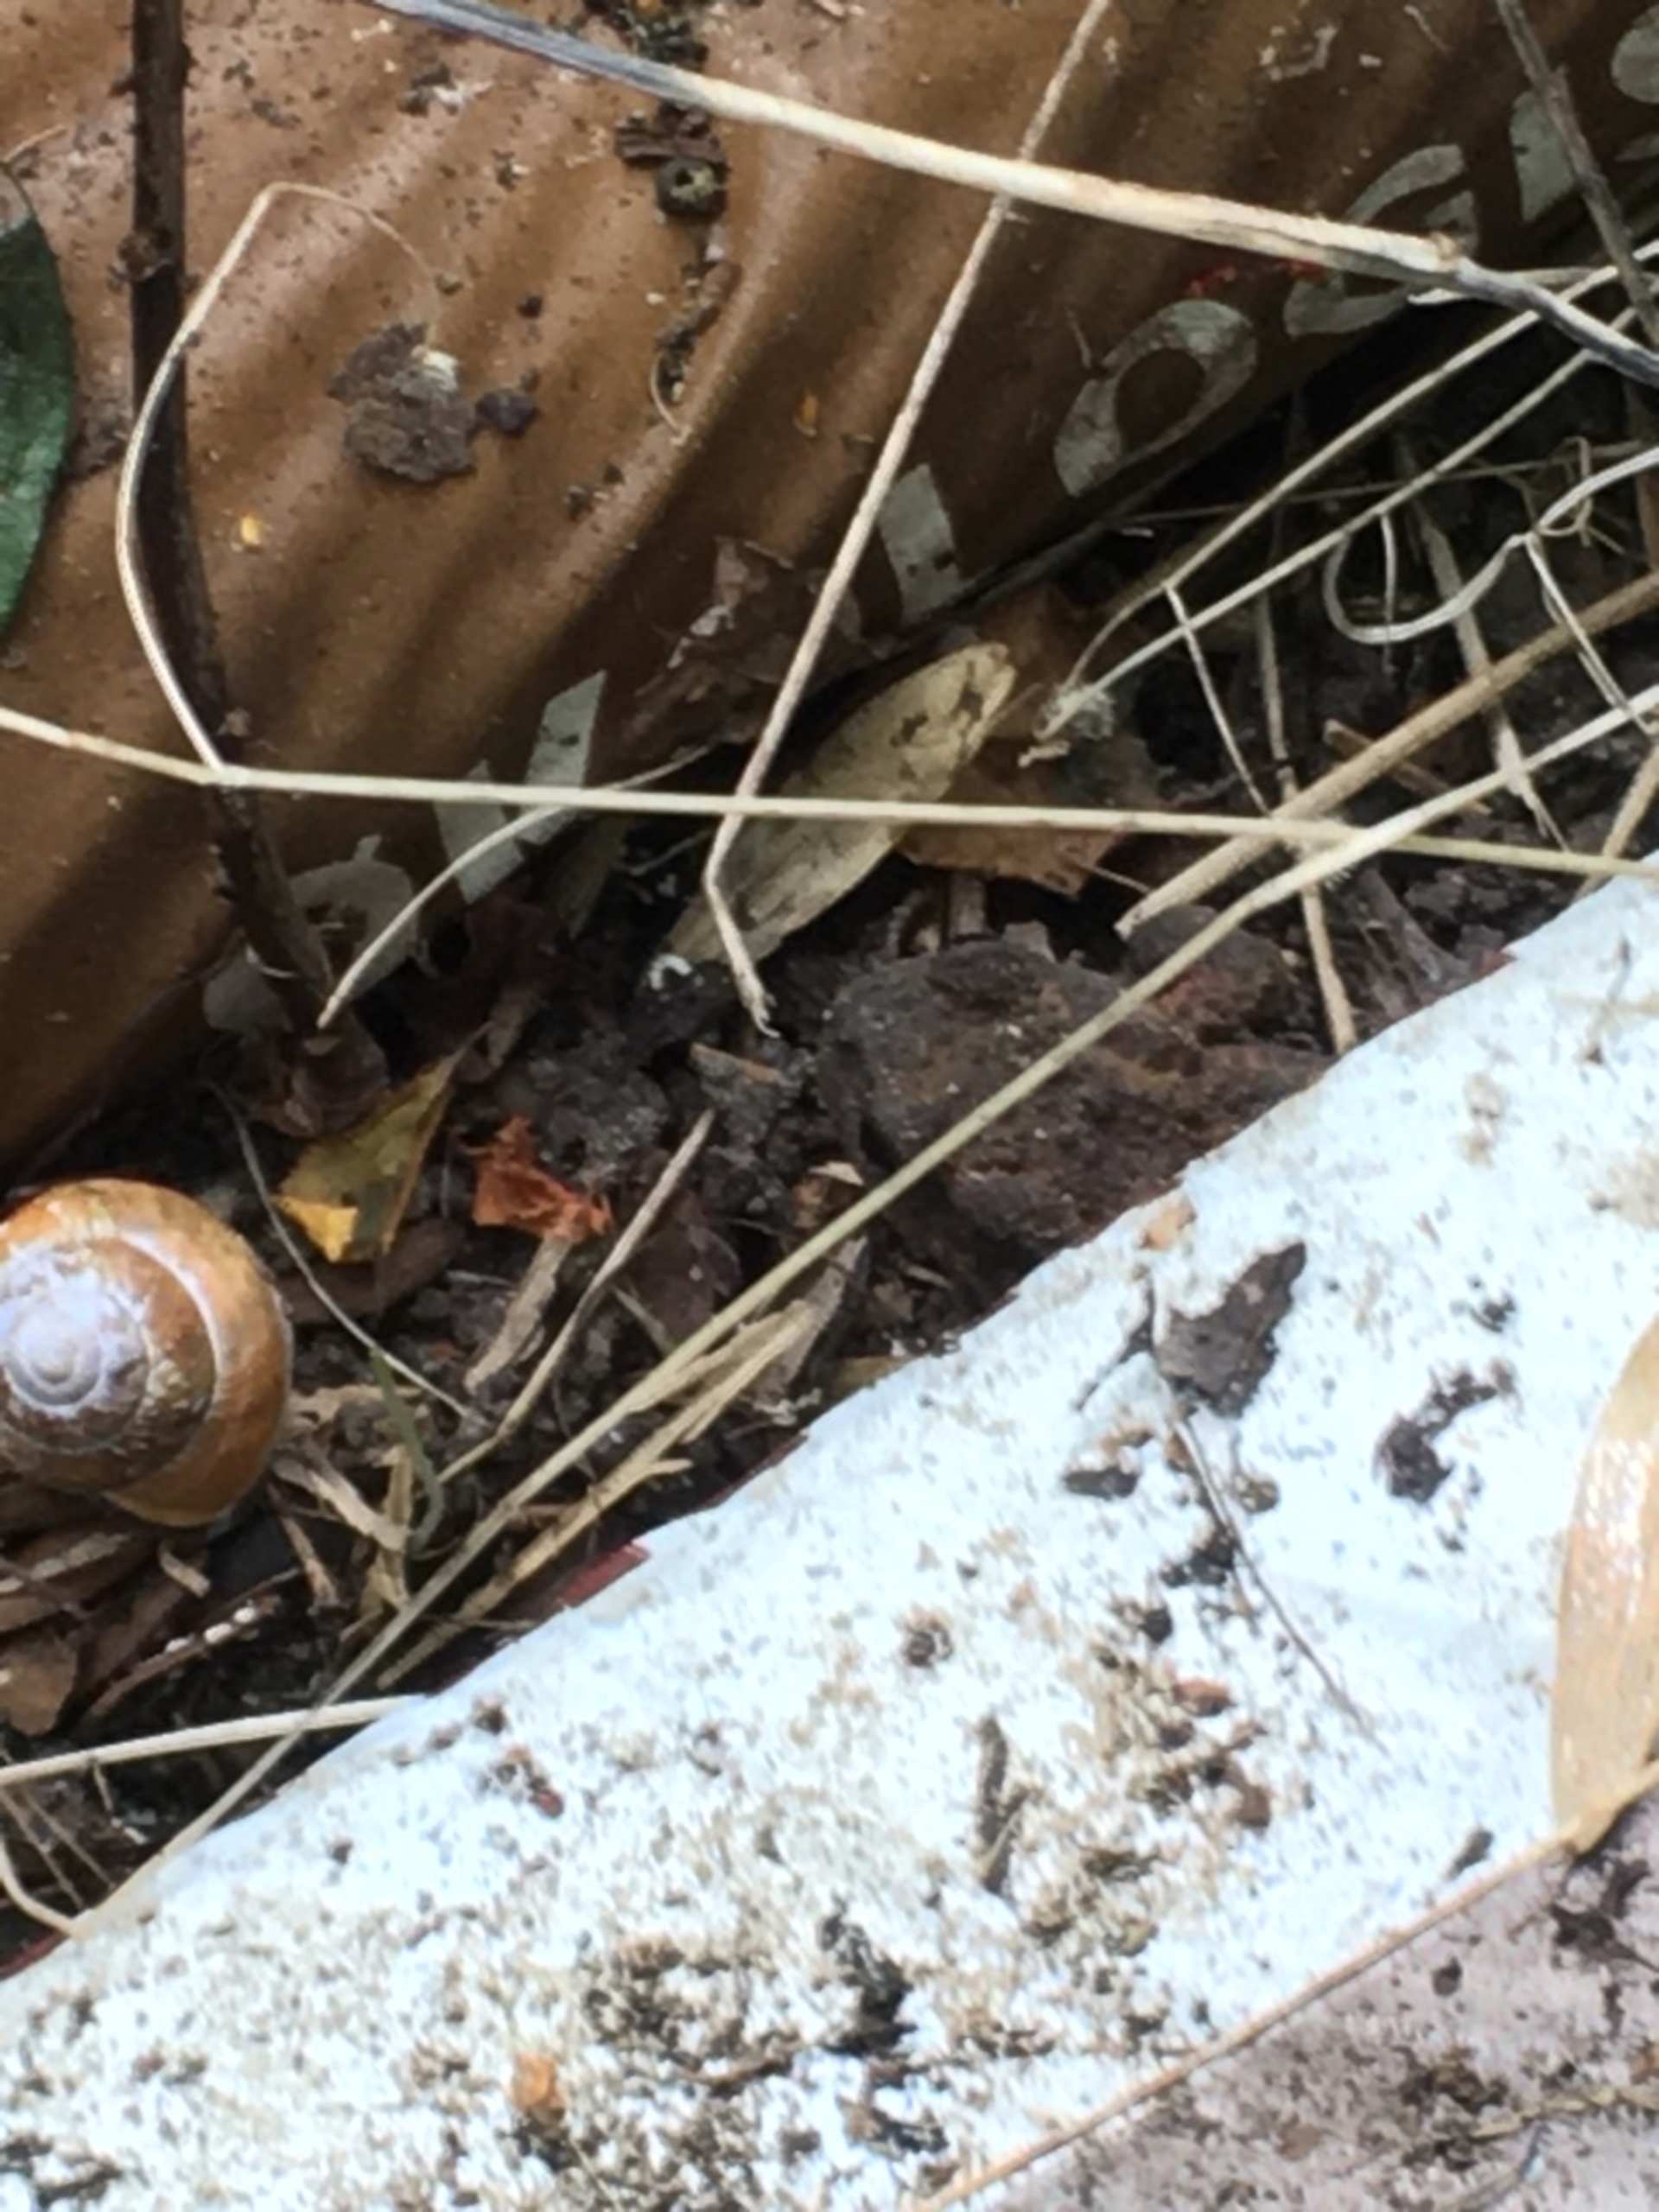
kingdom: Animalia
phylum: Chordata
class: Amphibia
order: Anura
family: Bufonidae
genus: Bufo
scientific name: Bufo bufo
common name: Skrubtudse
